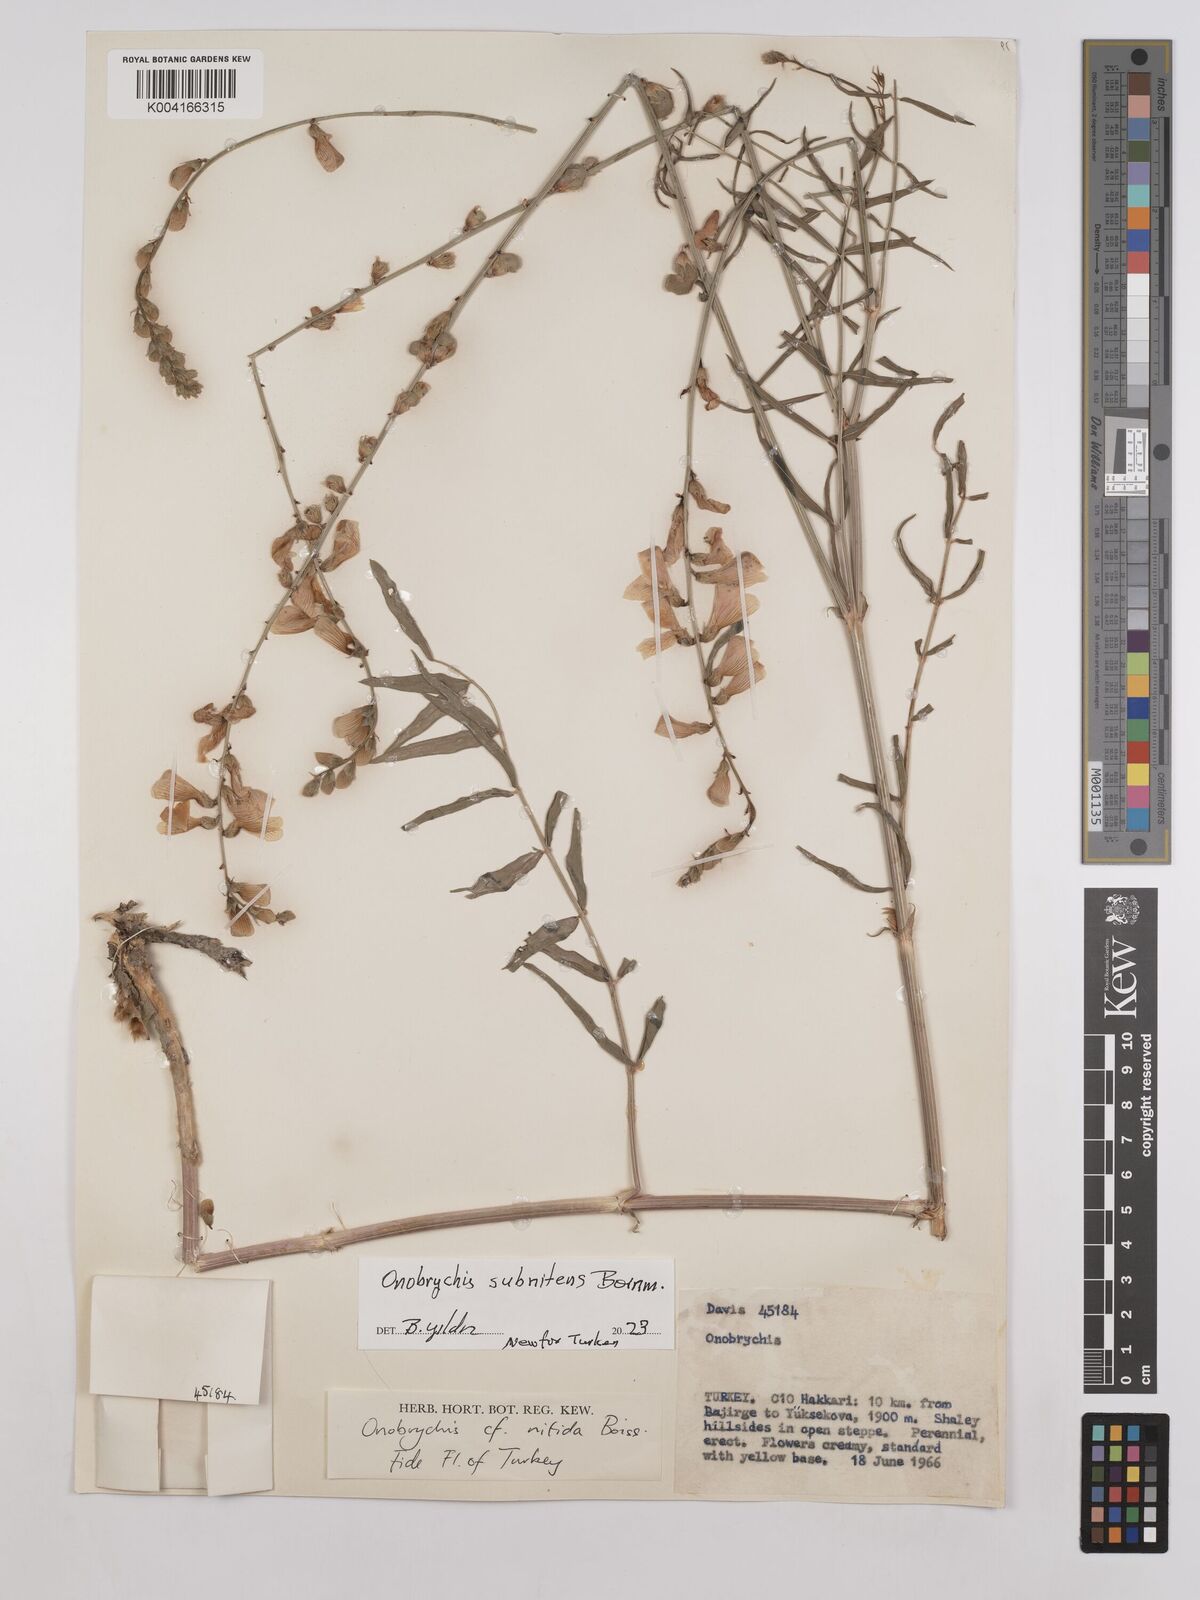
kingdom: Plantae
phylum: Tracheophyta
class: Magnoliopsida
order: Fabales
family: Fabaceae
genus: Onobrychis
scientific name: Onobrychis subnitens
